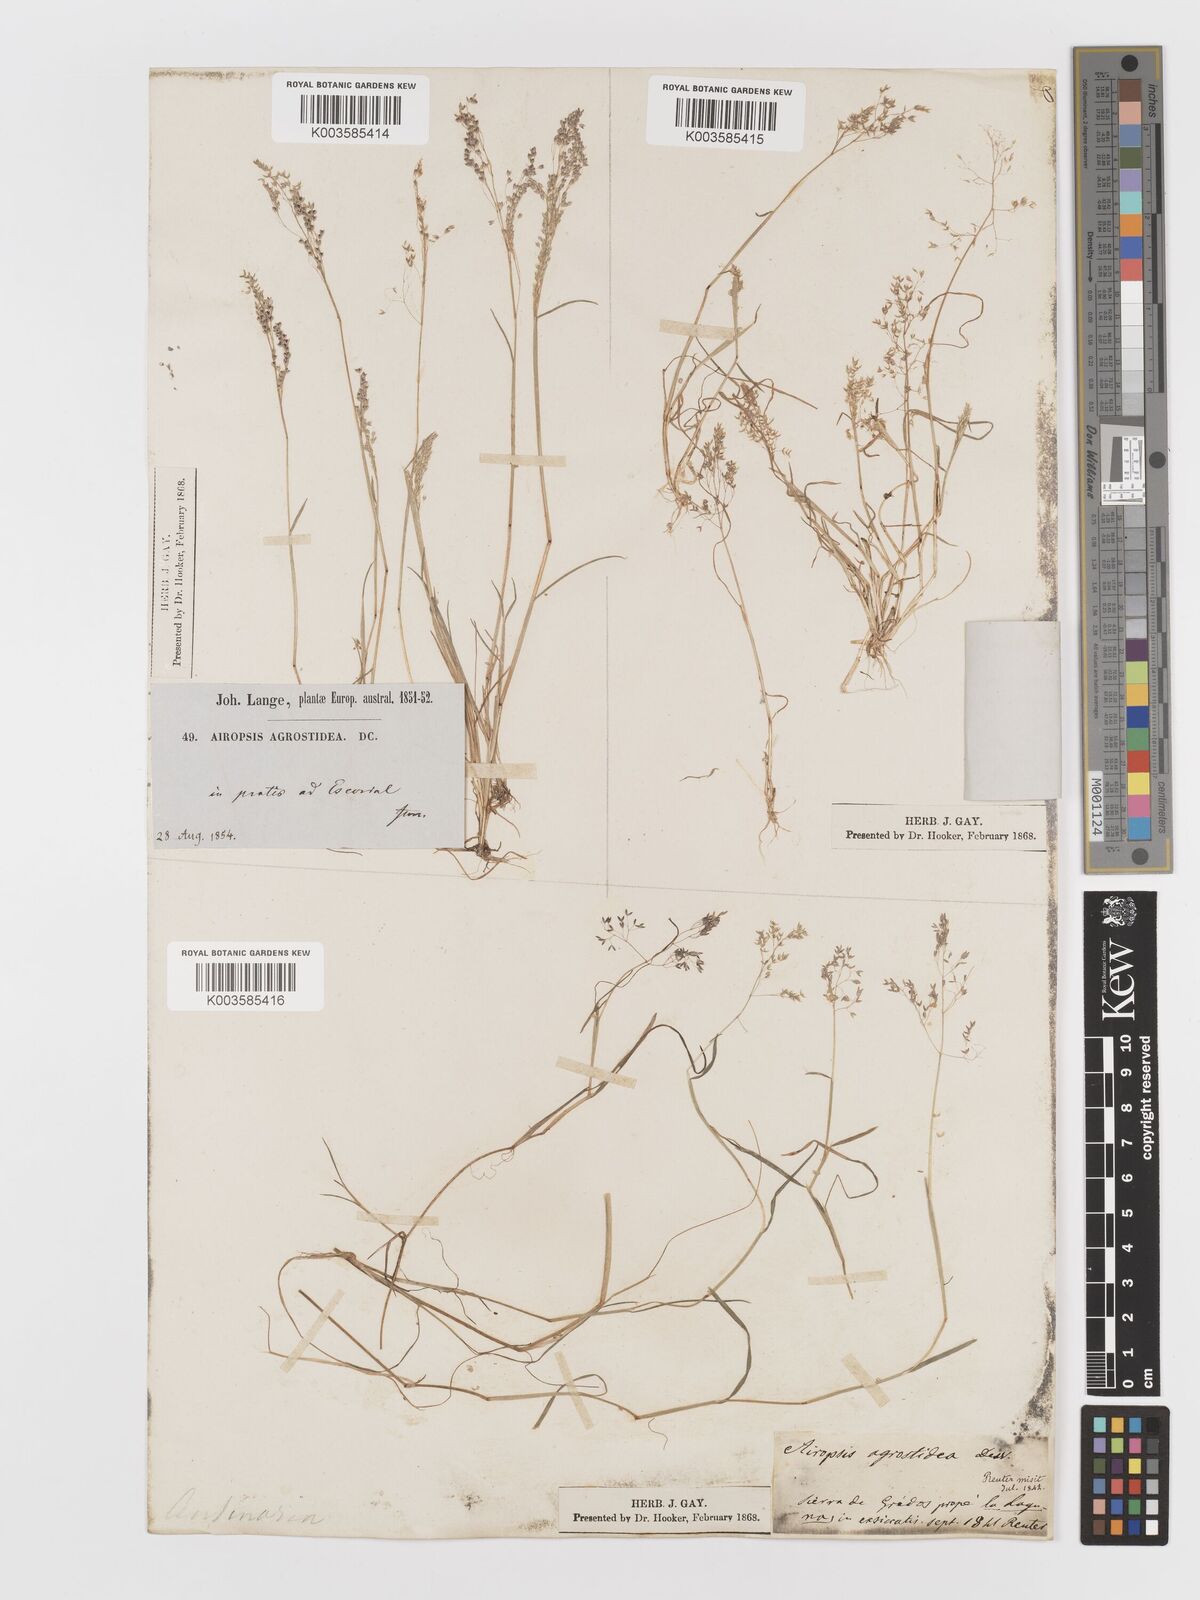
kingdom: Plantae
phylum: Tracheophyta
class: Liliopsida
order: Poales
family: Poaceae
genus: Antinoria
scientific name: Antinoria agrostidea
